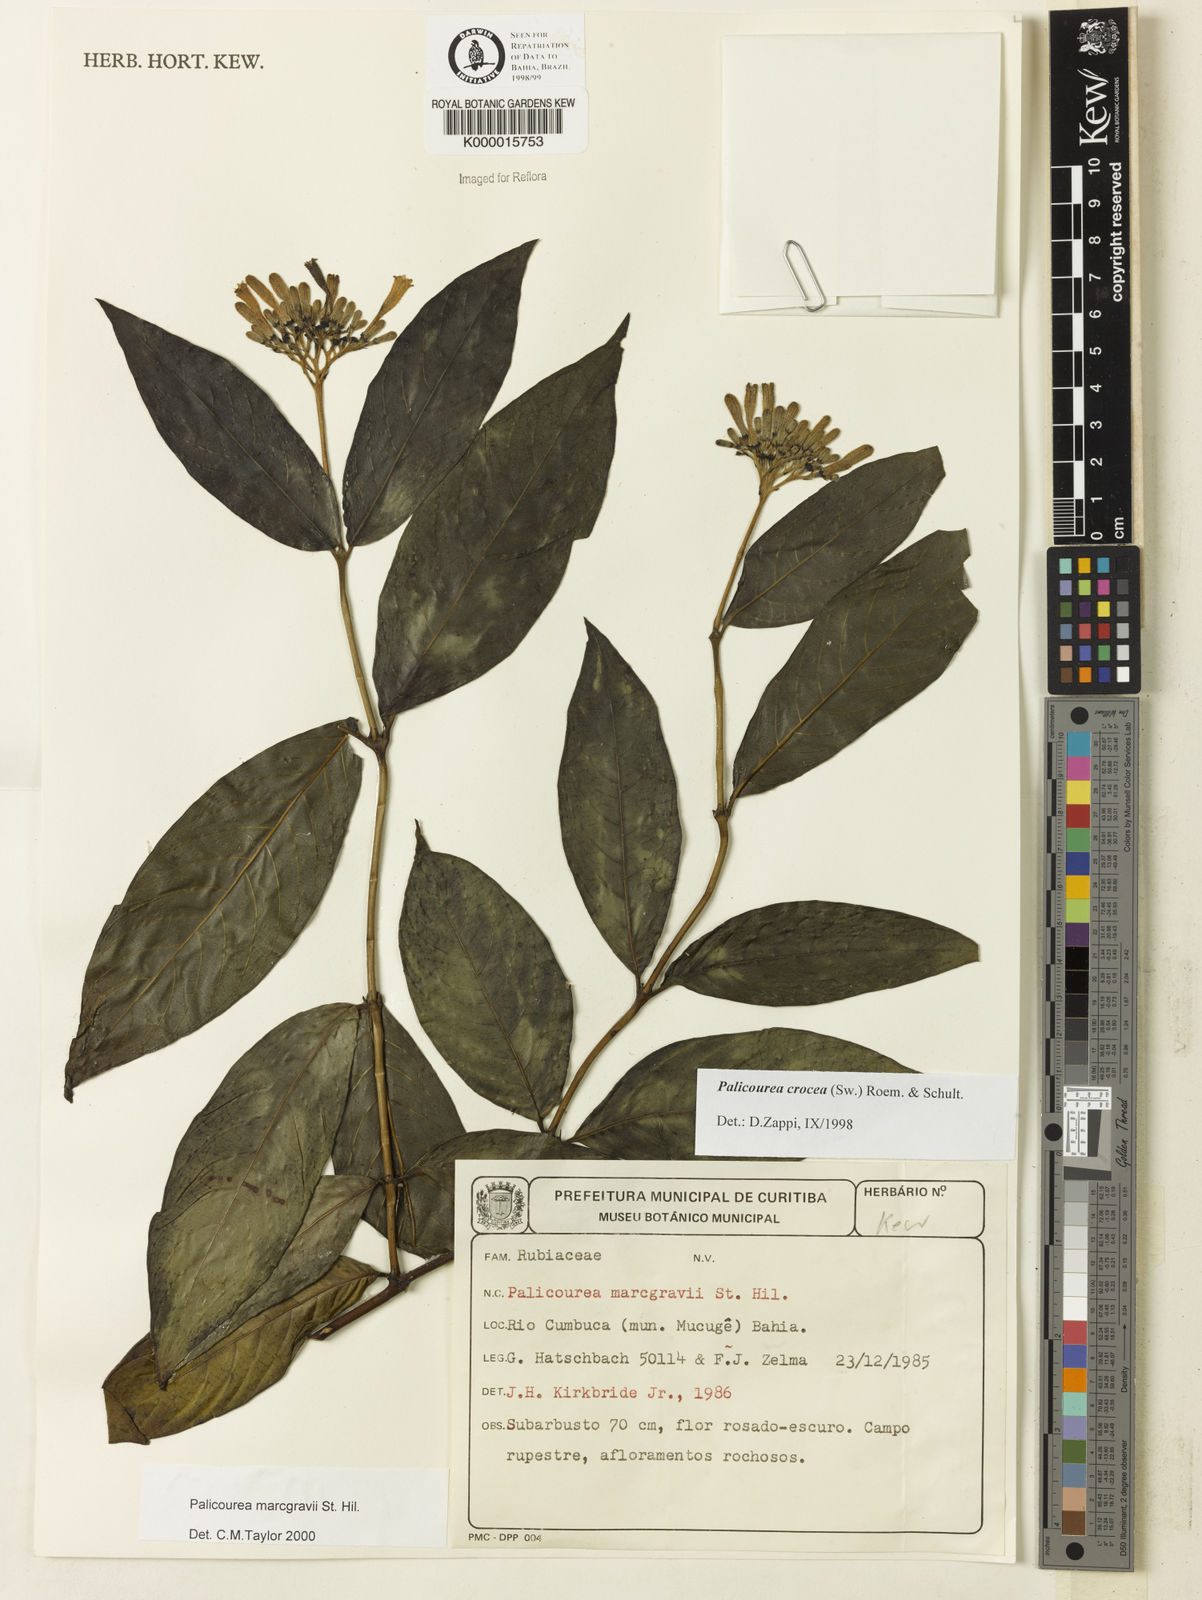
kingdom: Plantae
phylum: Tracheophyta
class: Magnoliopsida
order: Gentianales
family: Rubiaceae
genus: Palicourea
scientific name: Palicourea marcgravii
